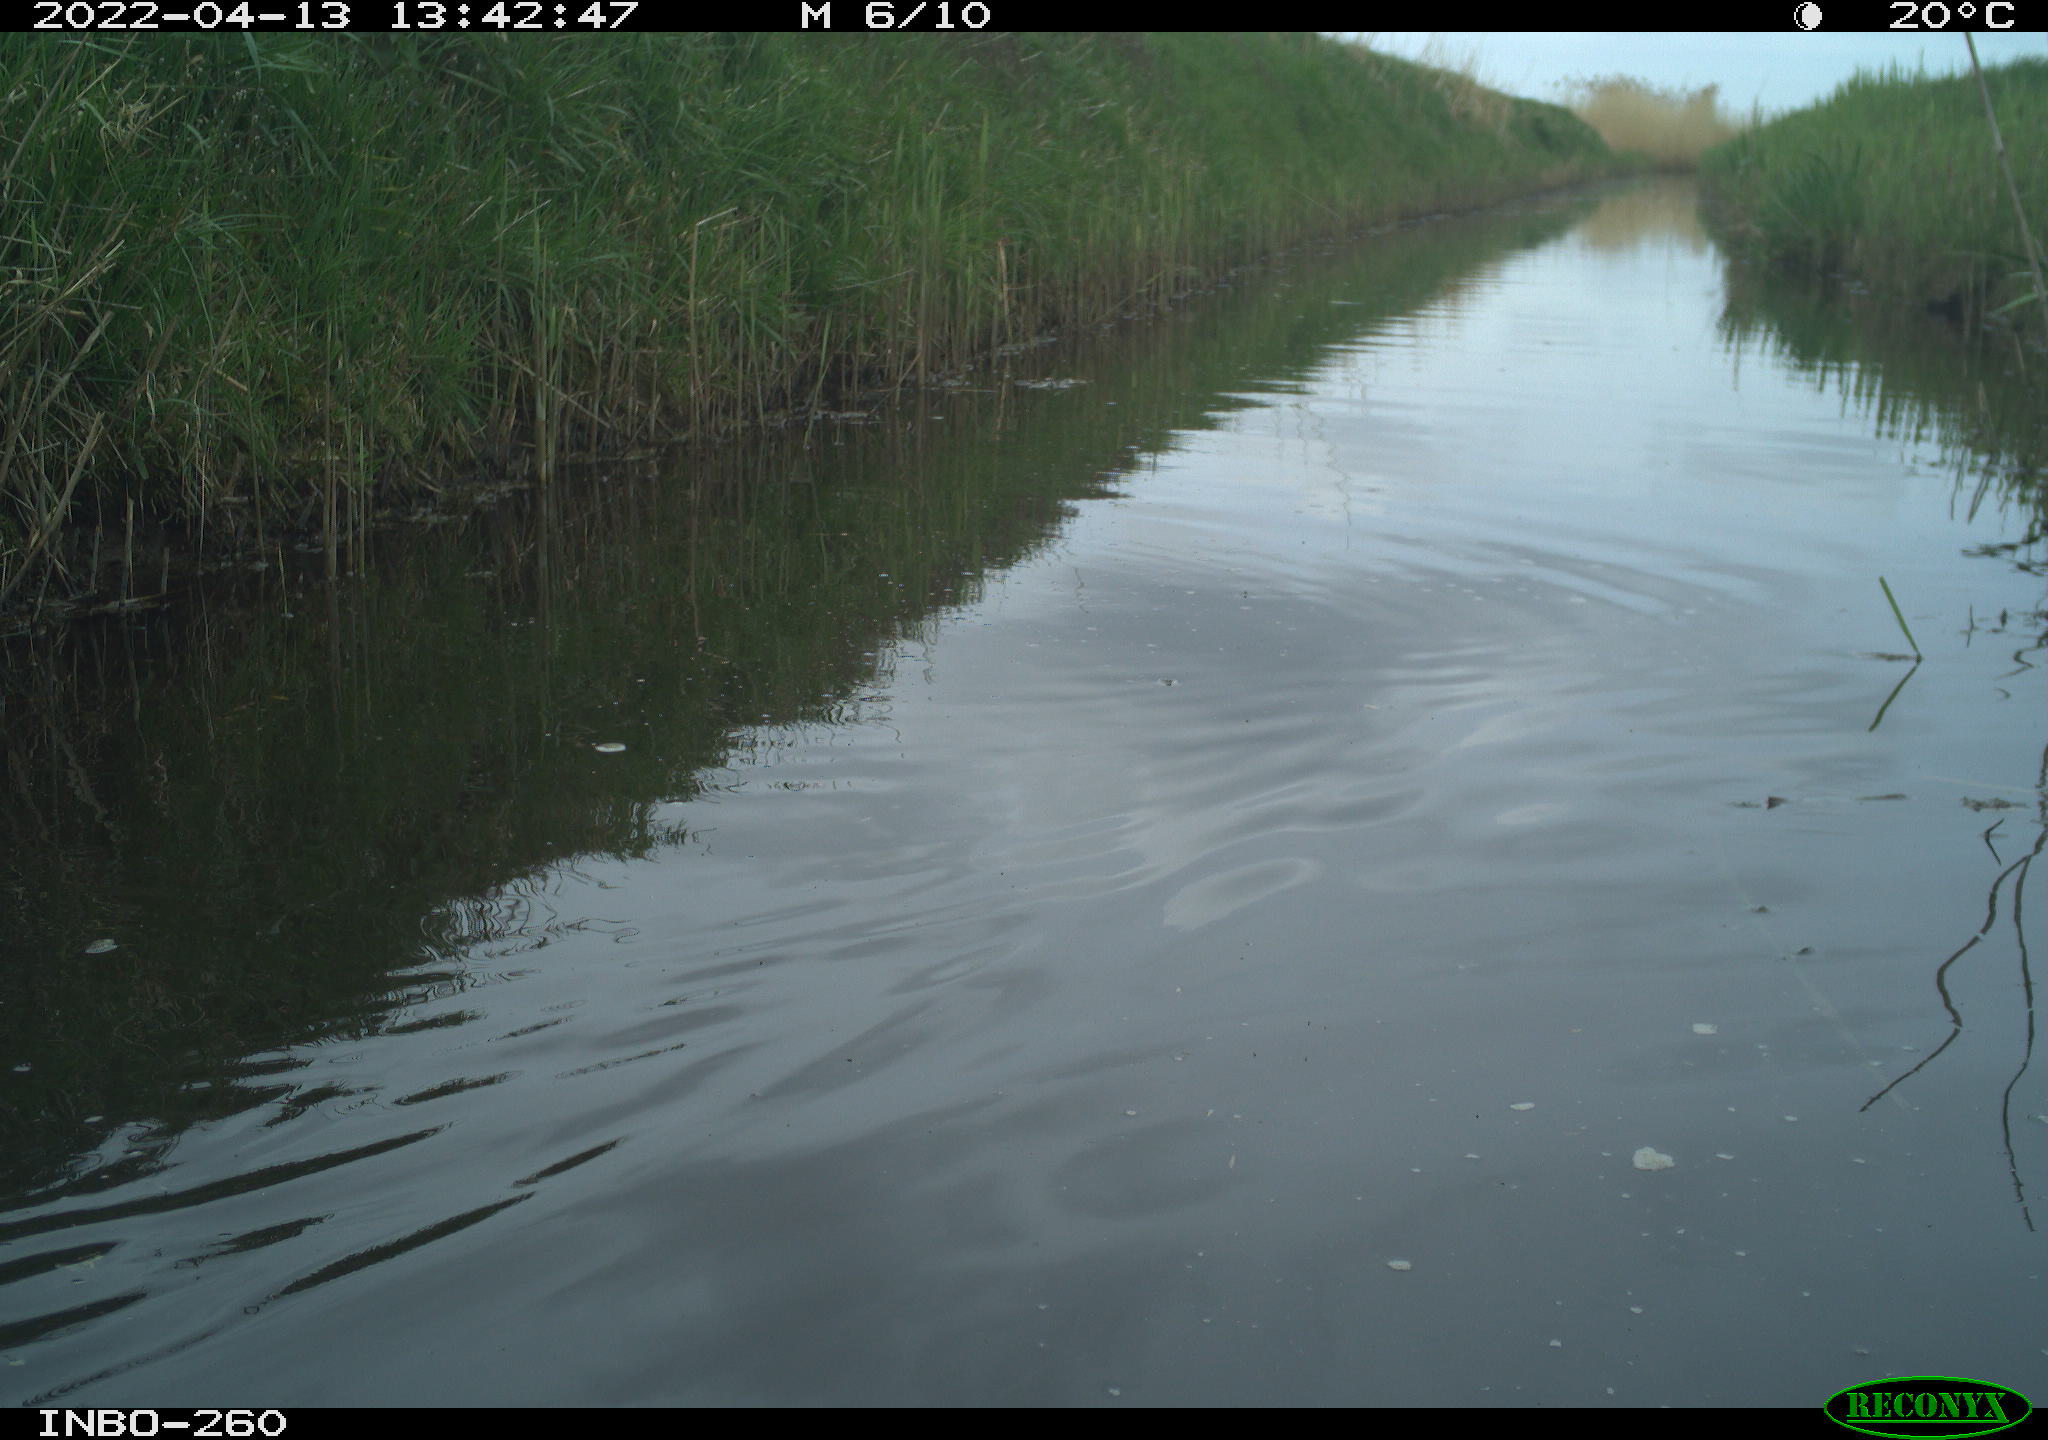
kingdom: Animalia
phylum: Chordata
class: Aves
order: Gruiformes
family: Rallidae
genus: Fulica
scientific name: Fulica atra
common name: Eurasian coot
